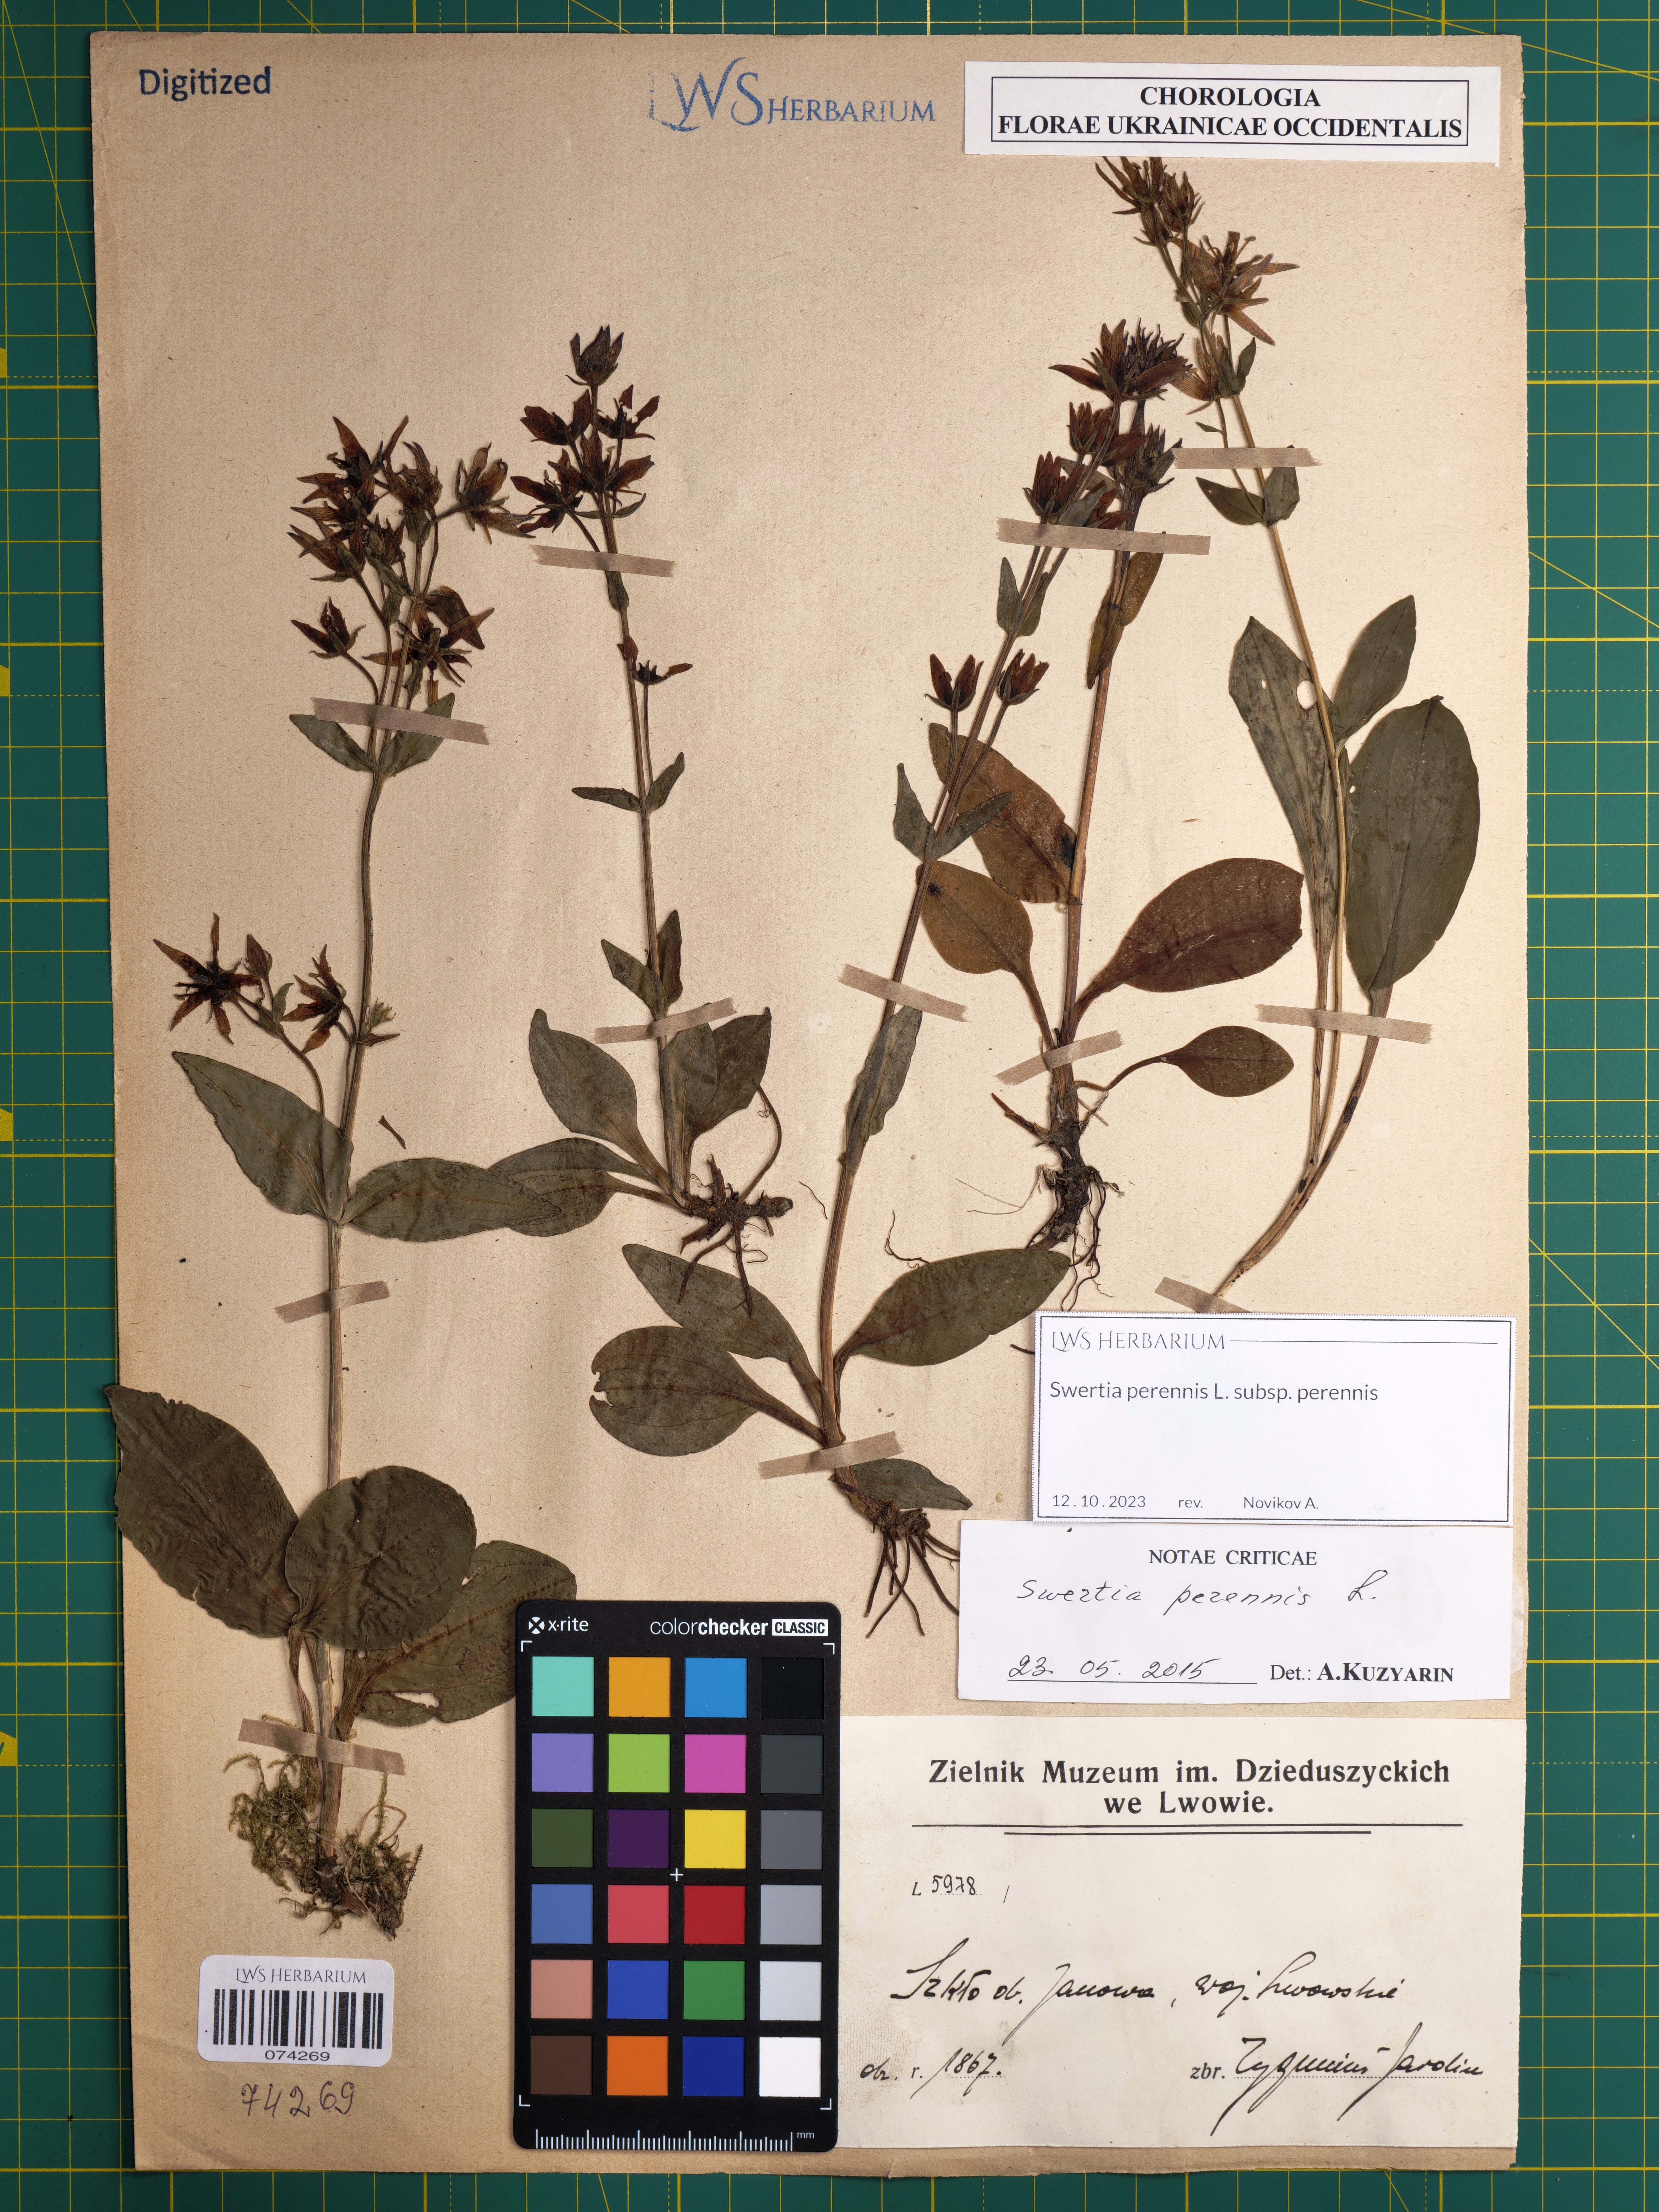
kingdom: Plantae
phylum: Tracheophyta
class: Magnoliopsida
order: Gentianales
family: Gentianaceae
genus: Swertia
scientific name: Swertia perennis
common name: Alpine bog swertia
